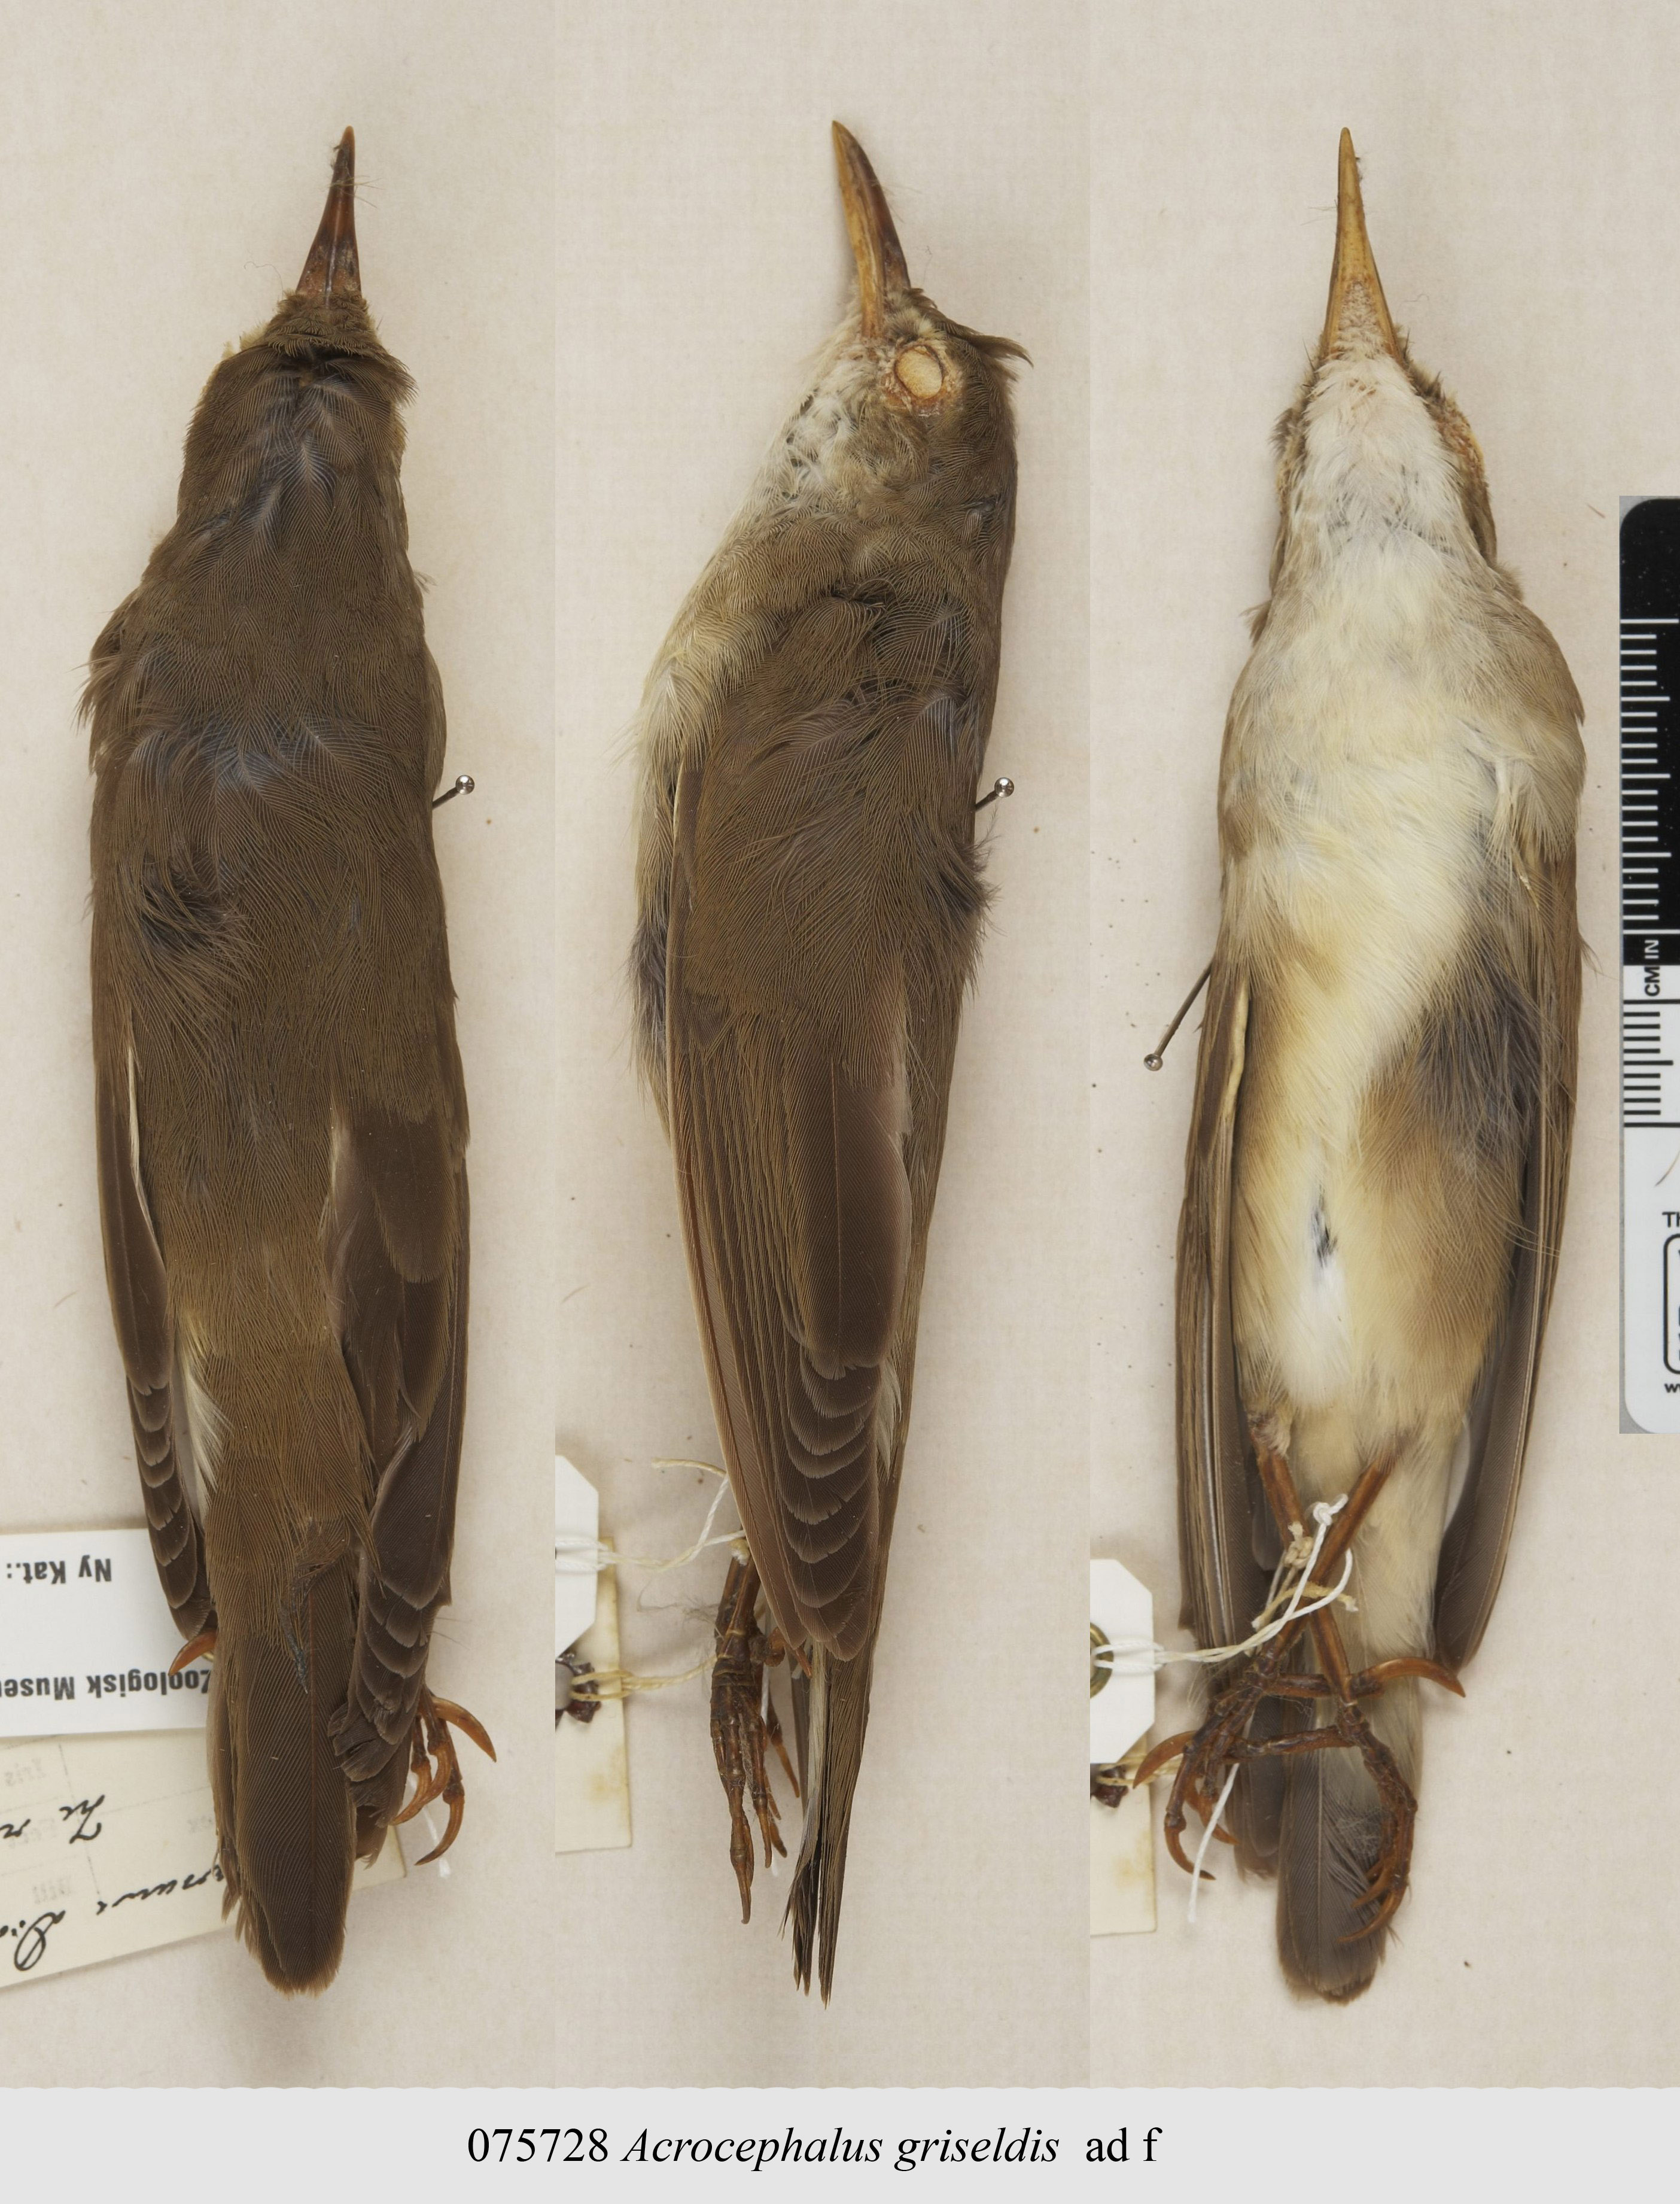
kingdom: Animalia
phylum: Chordata
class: Aves
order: Passeriformes
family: Acrocephalidae
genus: Acrocephalus
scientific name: Acrocephalus griseldis
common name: Basra reed warbler
